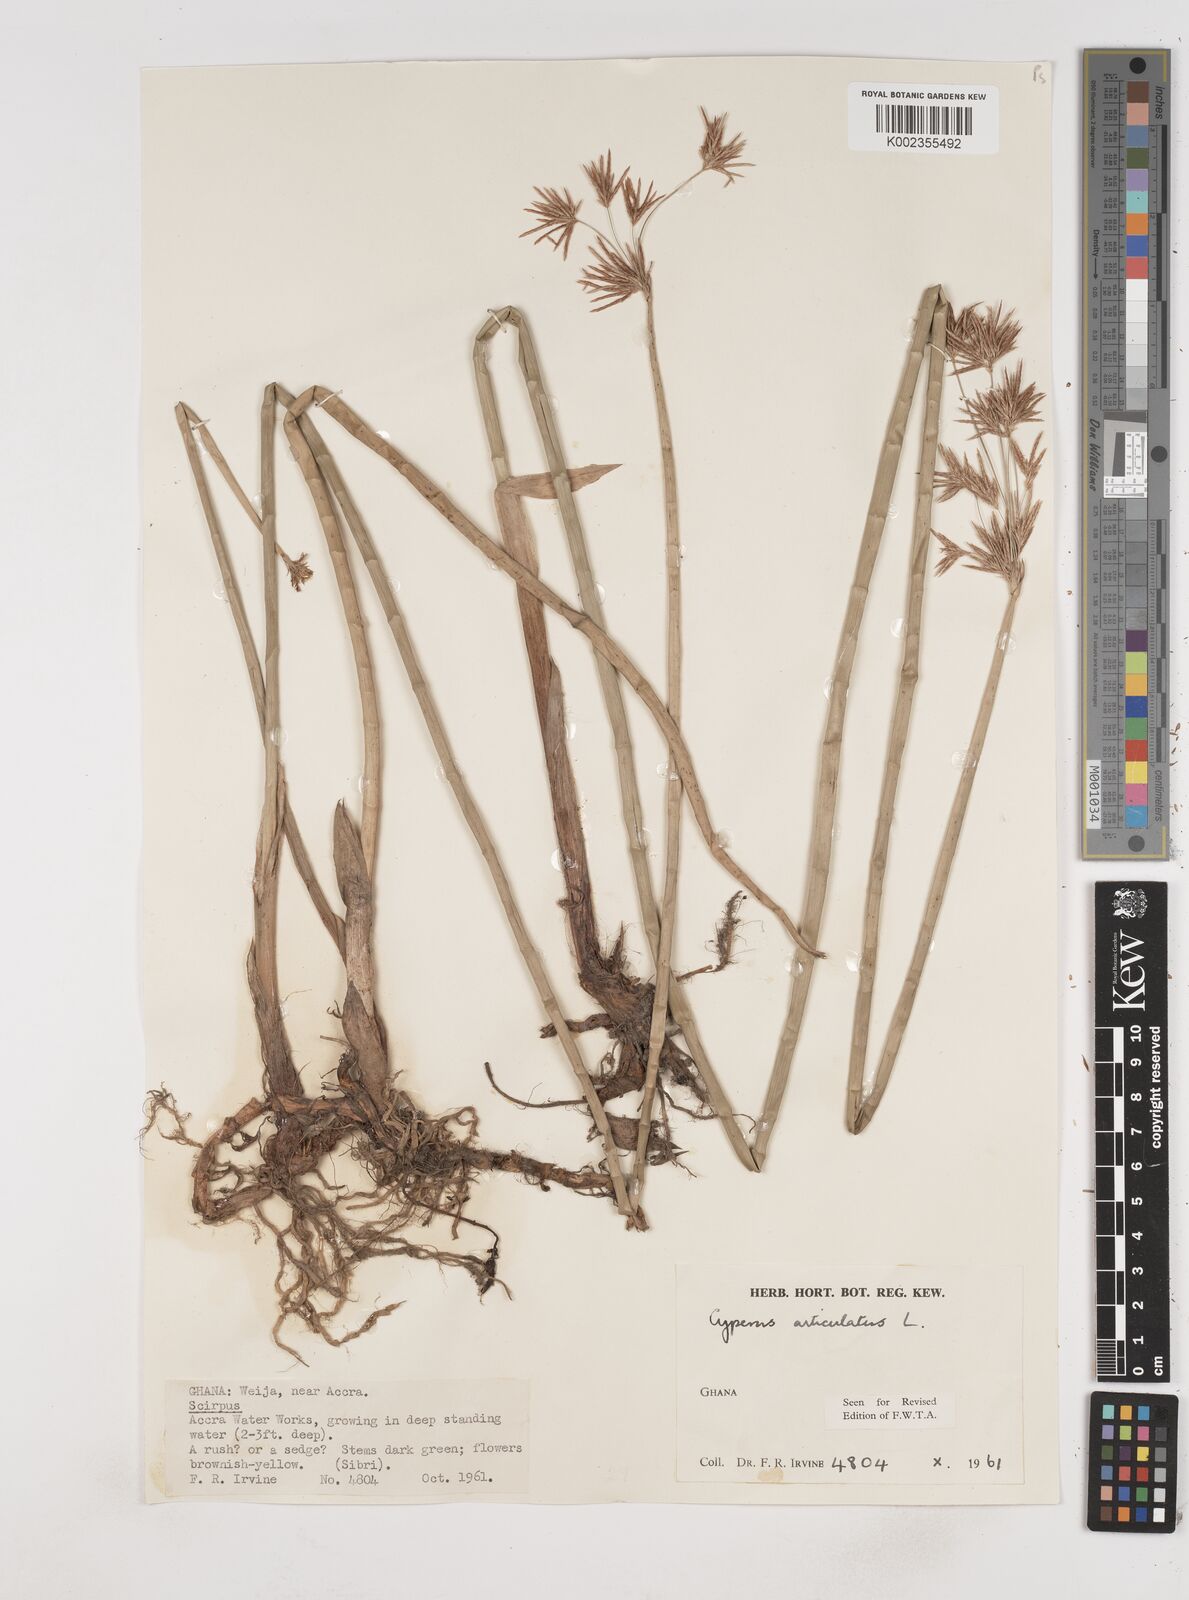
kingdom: Plantae
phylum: Tracheophyta
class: Liliopsida
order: Poales
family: Cyperaceae
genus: Cyperus
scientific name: Cyperus articulatus
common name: Jointed flatsedge
